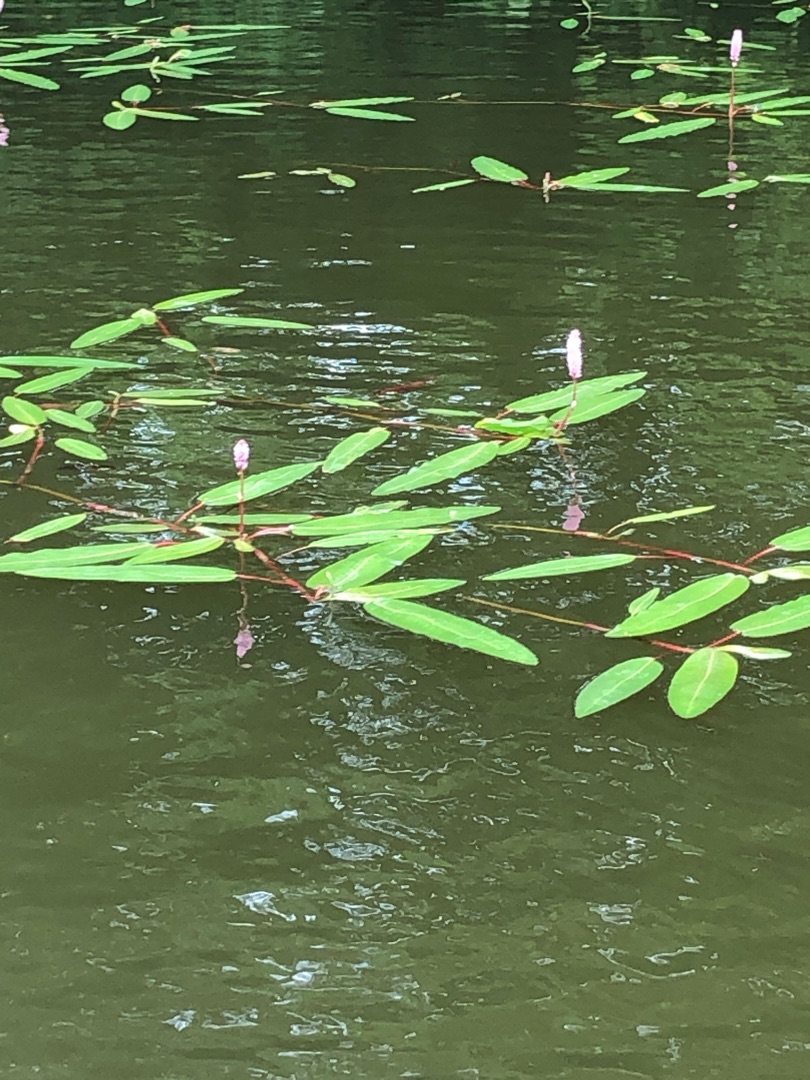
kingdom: Plantae
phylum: Tracheophyta
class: Magnoliopsida
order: Caryophyllales
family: Polygonaceae
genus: Persicaria
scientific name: Persicaria amphibia
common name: Vand-pileurt
